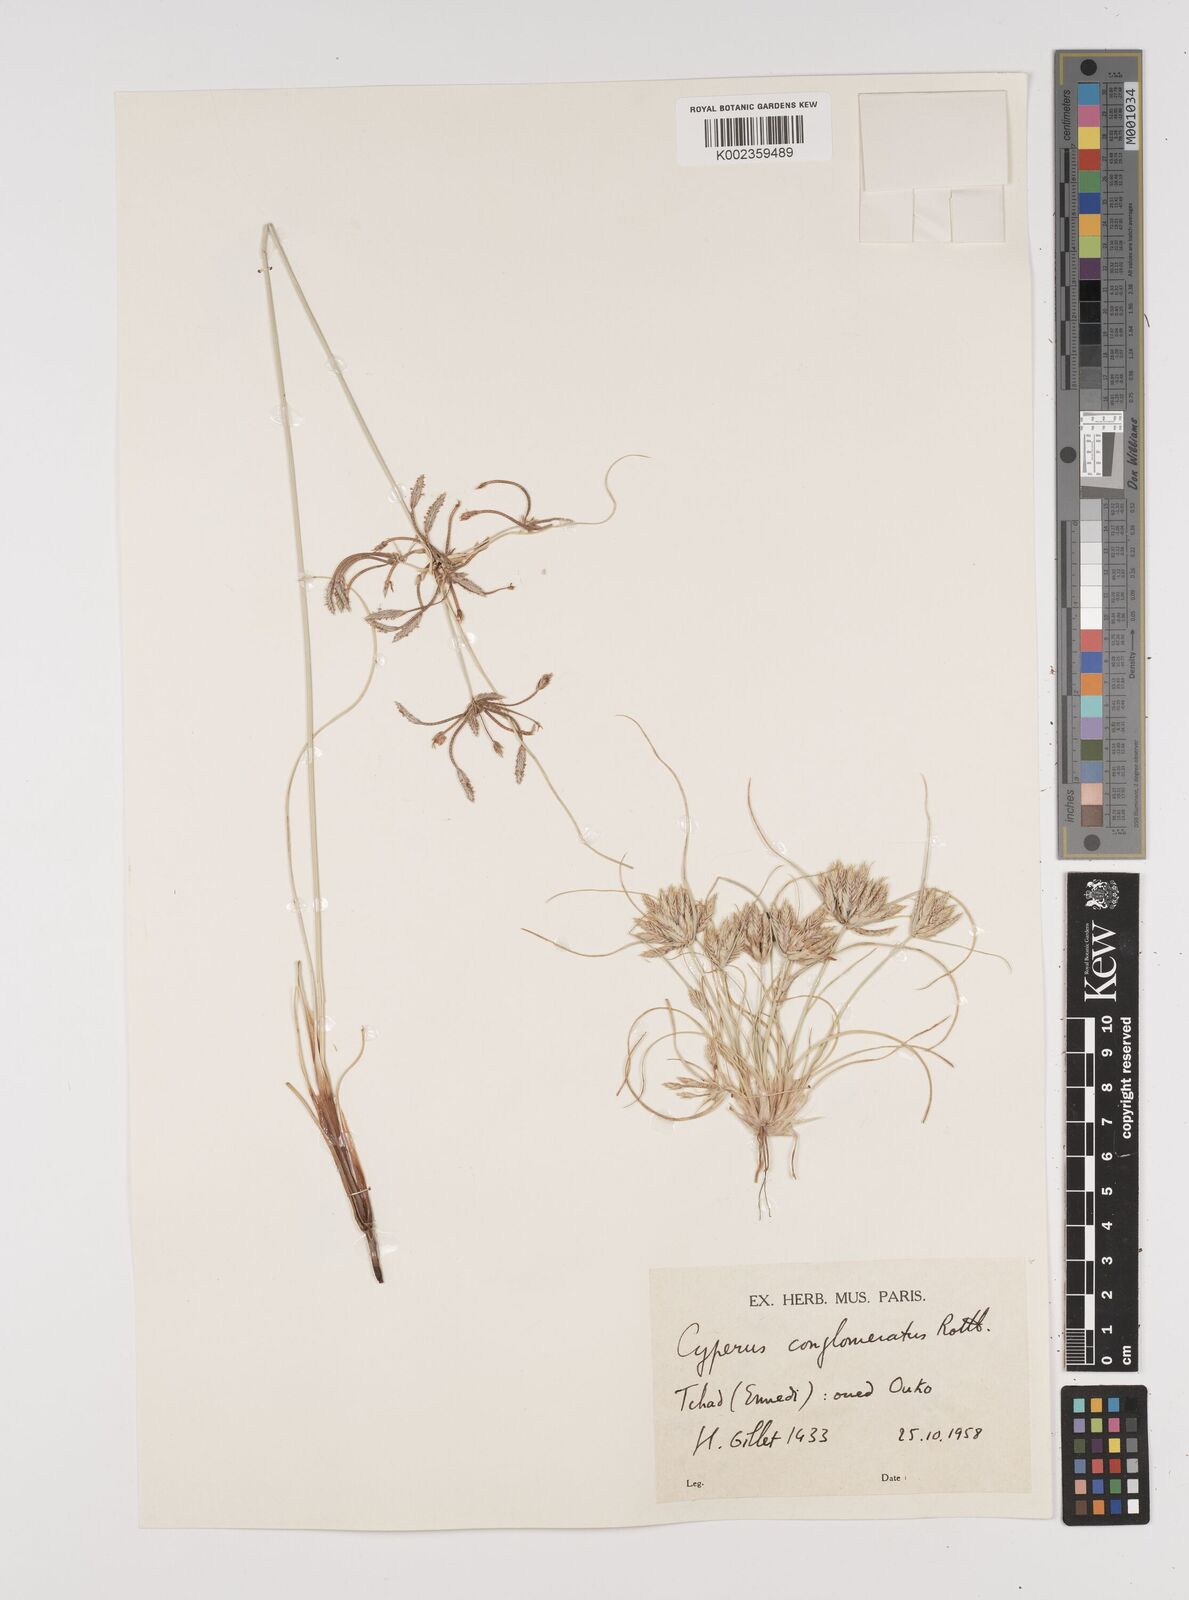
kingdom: Plantae
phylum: Tracheophyta
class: Liliopsida
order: Poales
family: Cyperaceae
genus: Cyperus
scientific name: Cyperus conglomeratus
